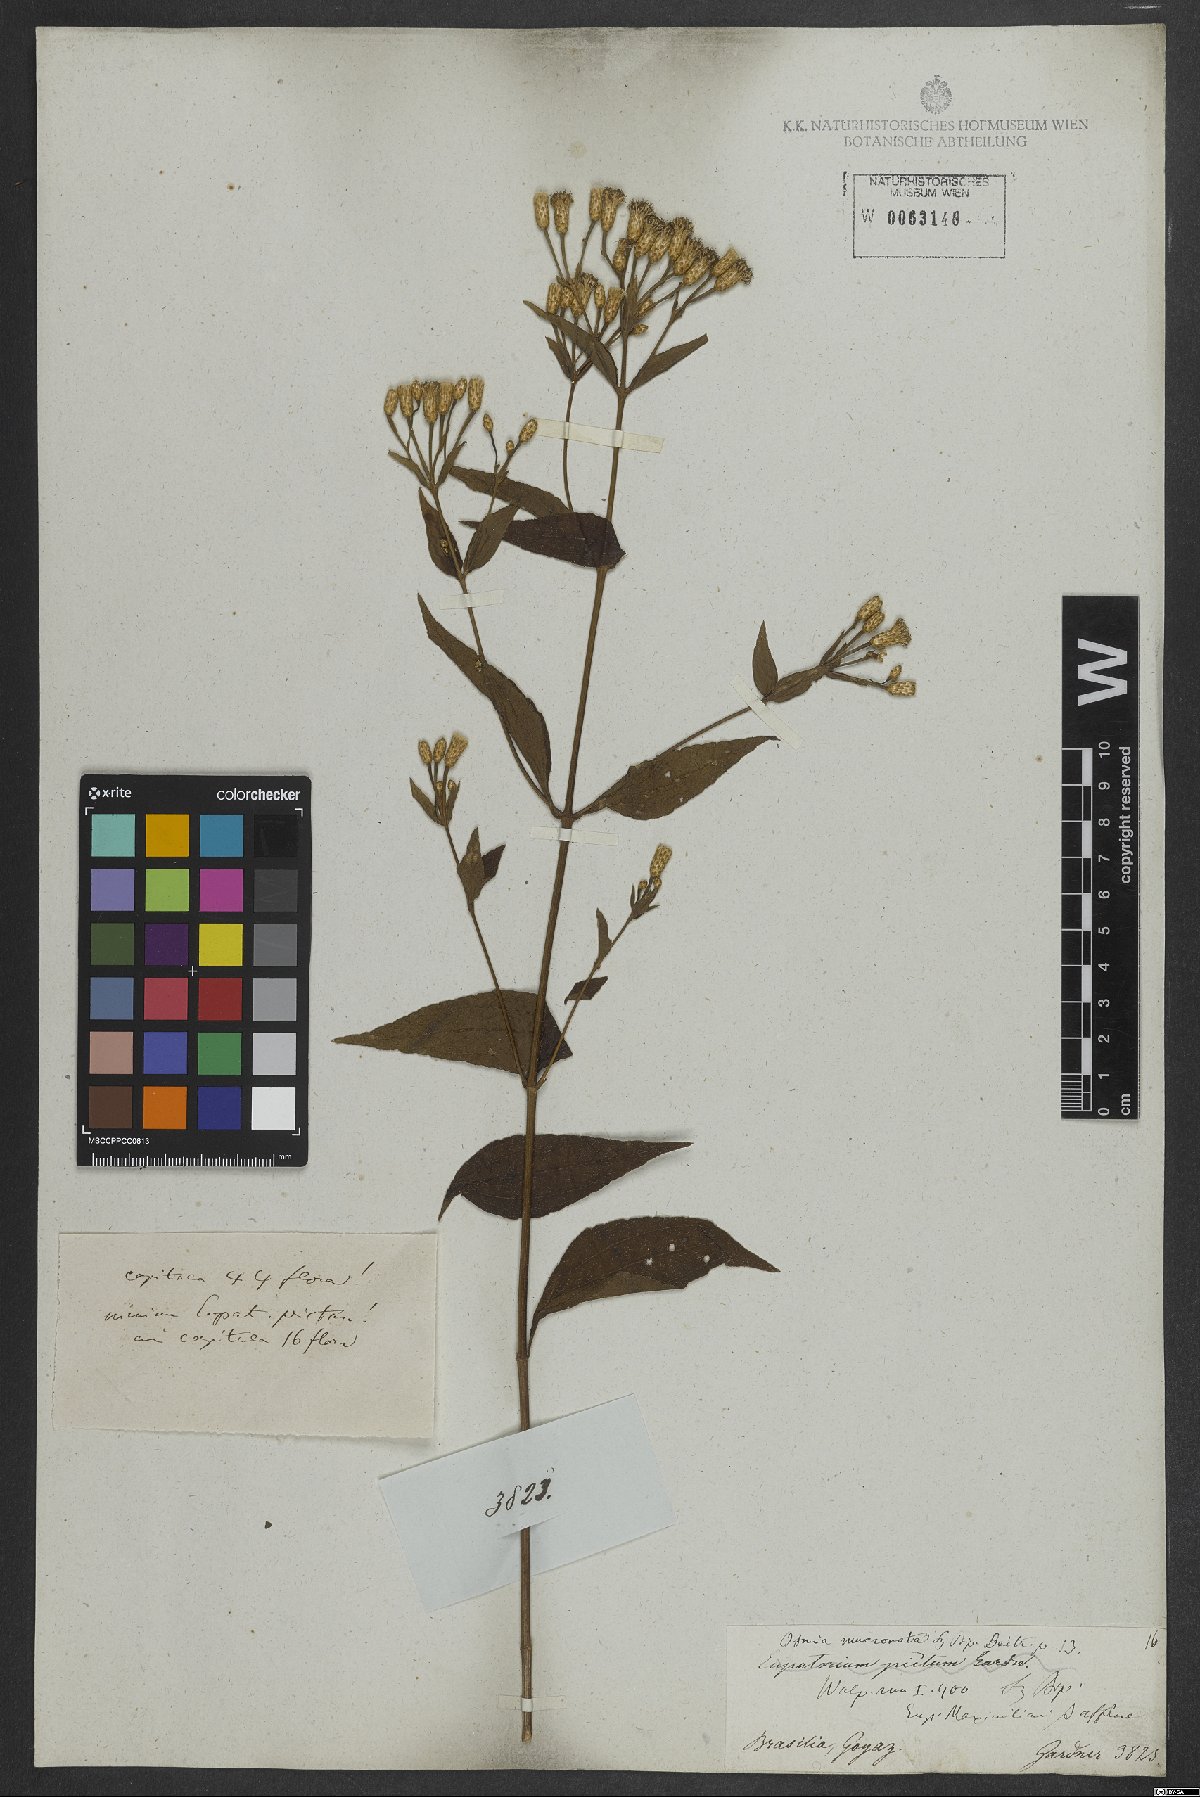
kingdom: Plantae
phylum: Tracheophyta
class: Magnoliopsida
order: Asterales
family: Asteraceae
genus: Chromolaena
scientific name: Chromolaena odorata
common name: Siamweed
